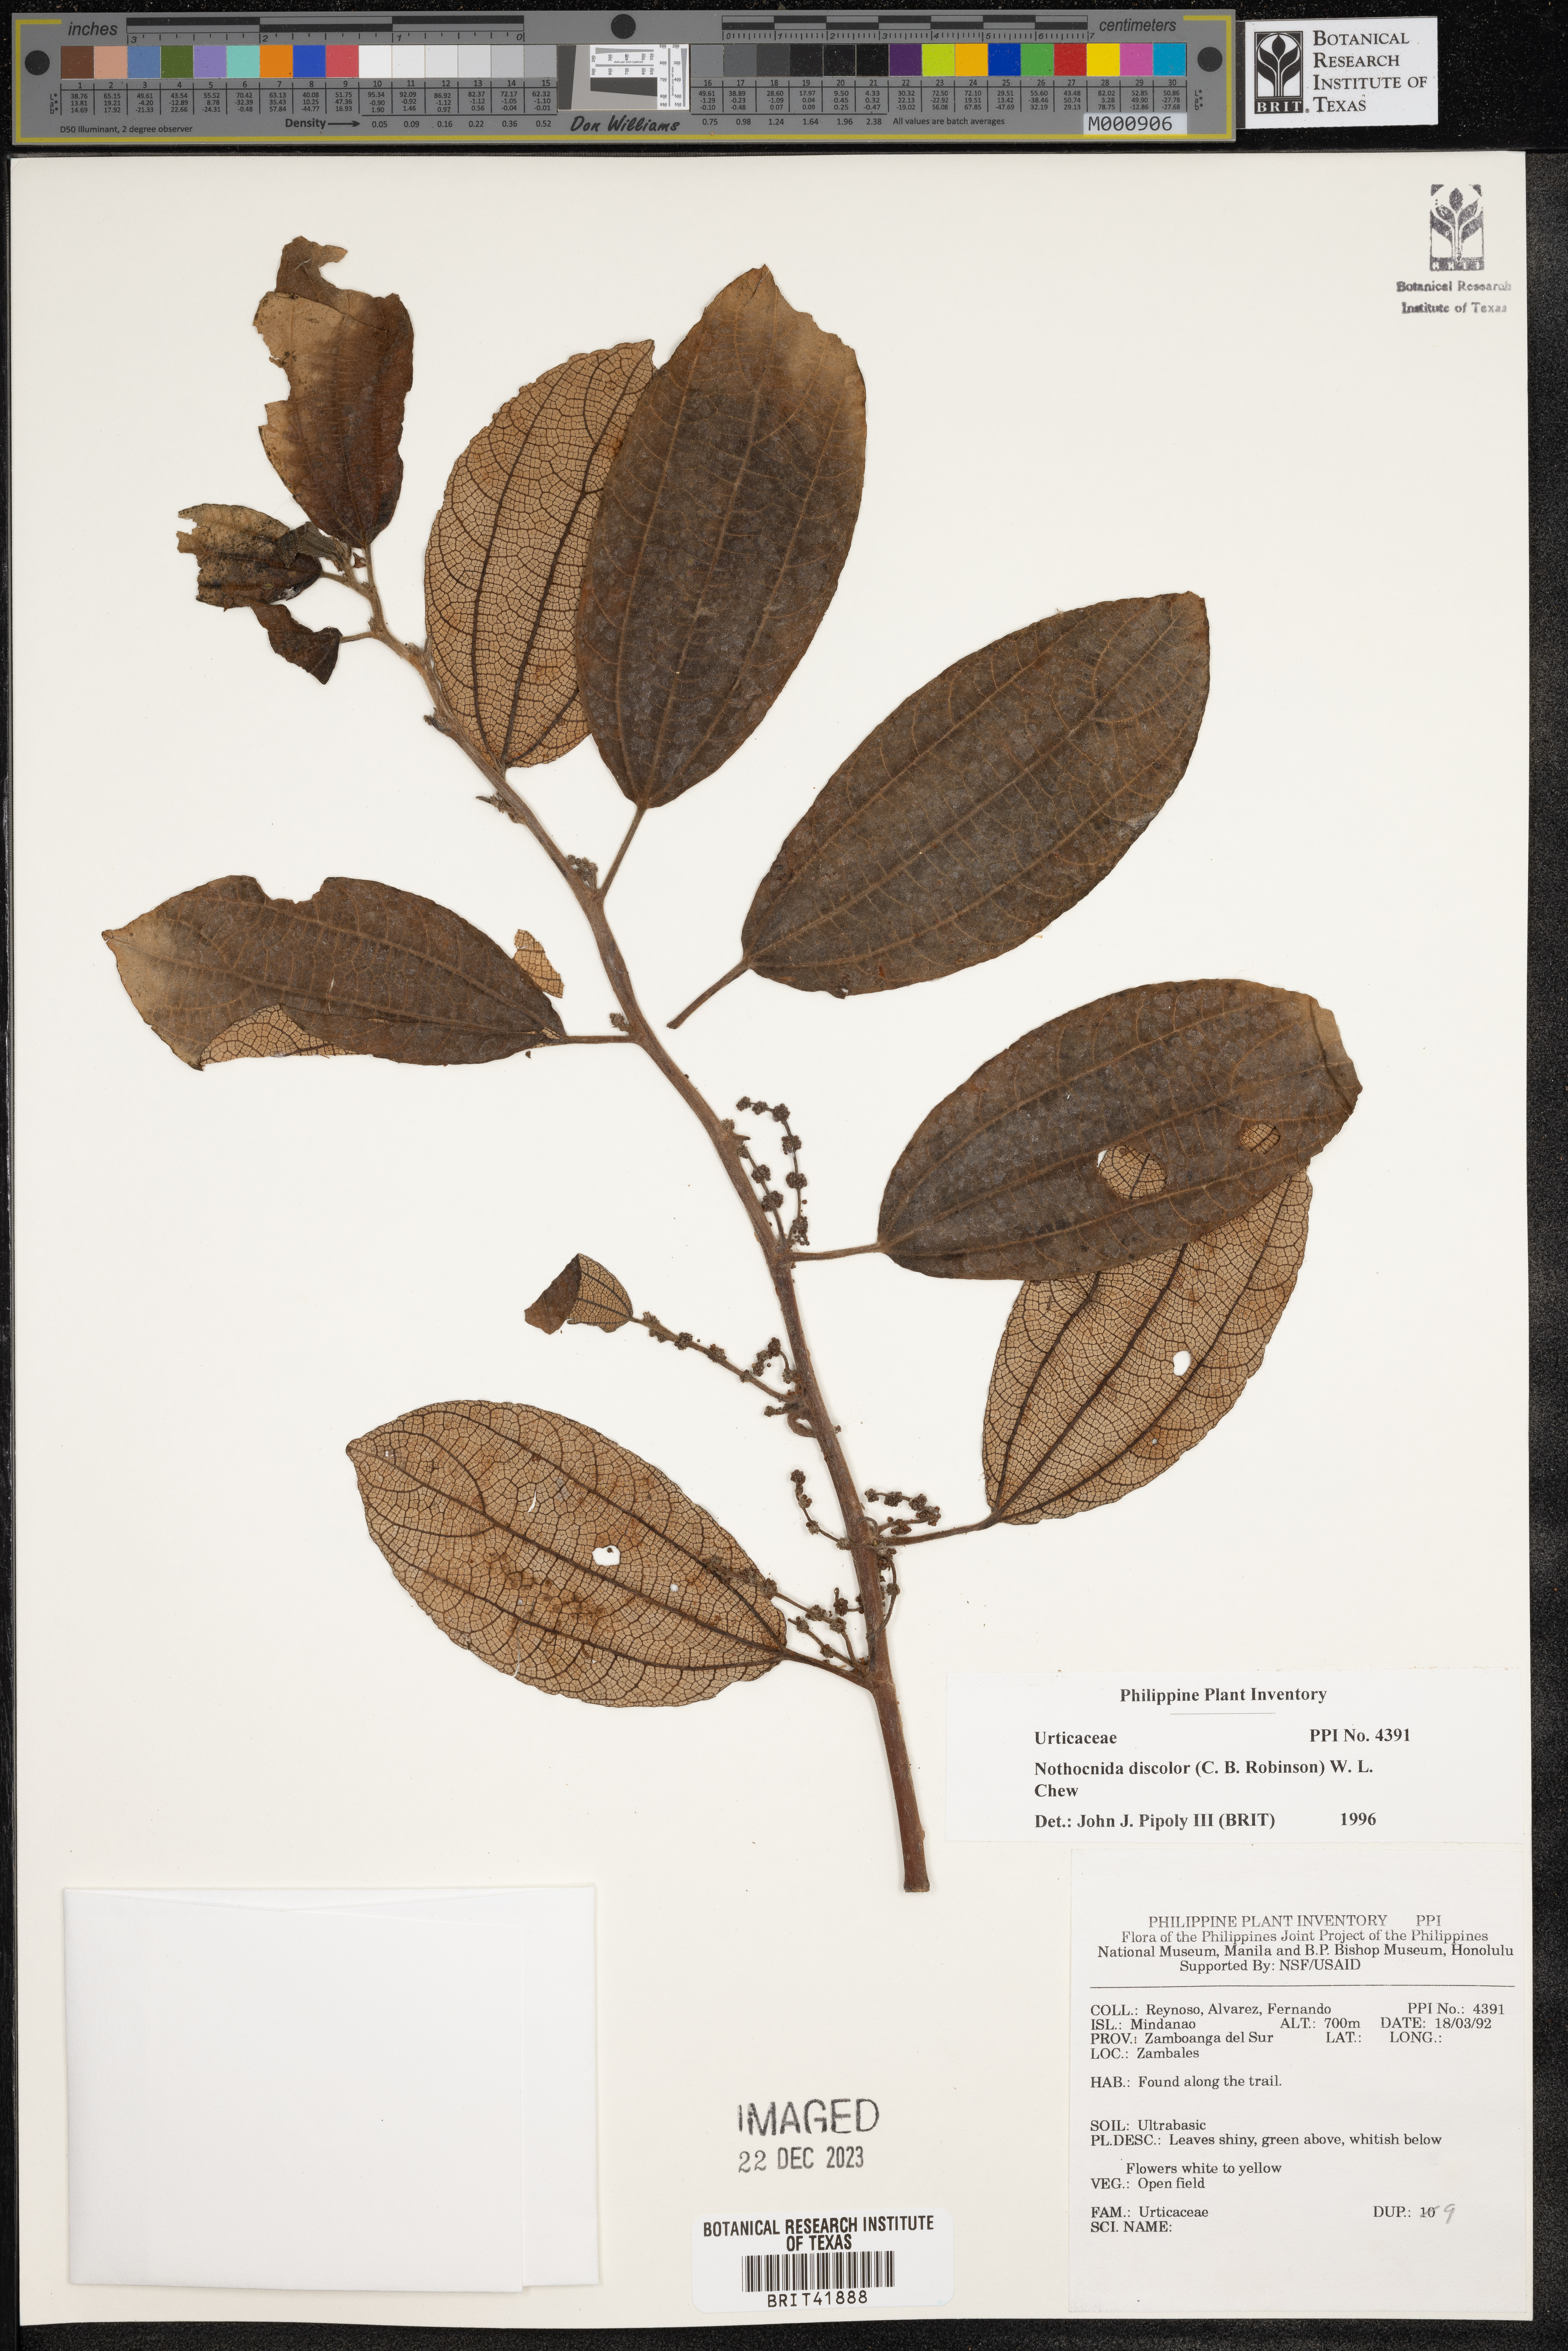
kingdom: Plantae
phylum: Tracheophyta
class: Magnoliopsida
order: Rosales
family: Urticaceae
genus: Nothocnide
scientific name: Nothocnide discolor
